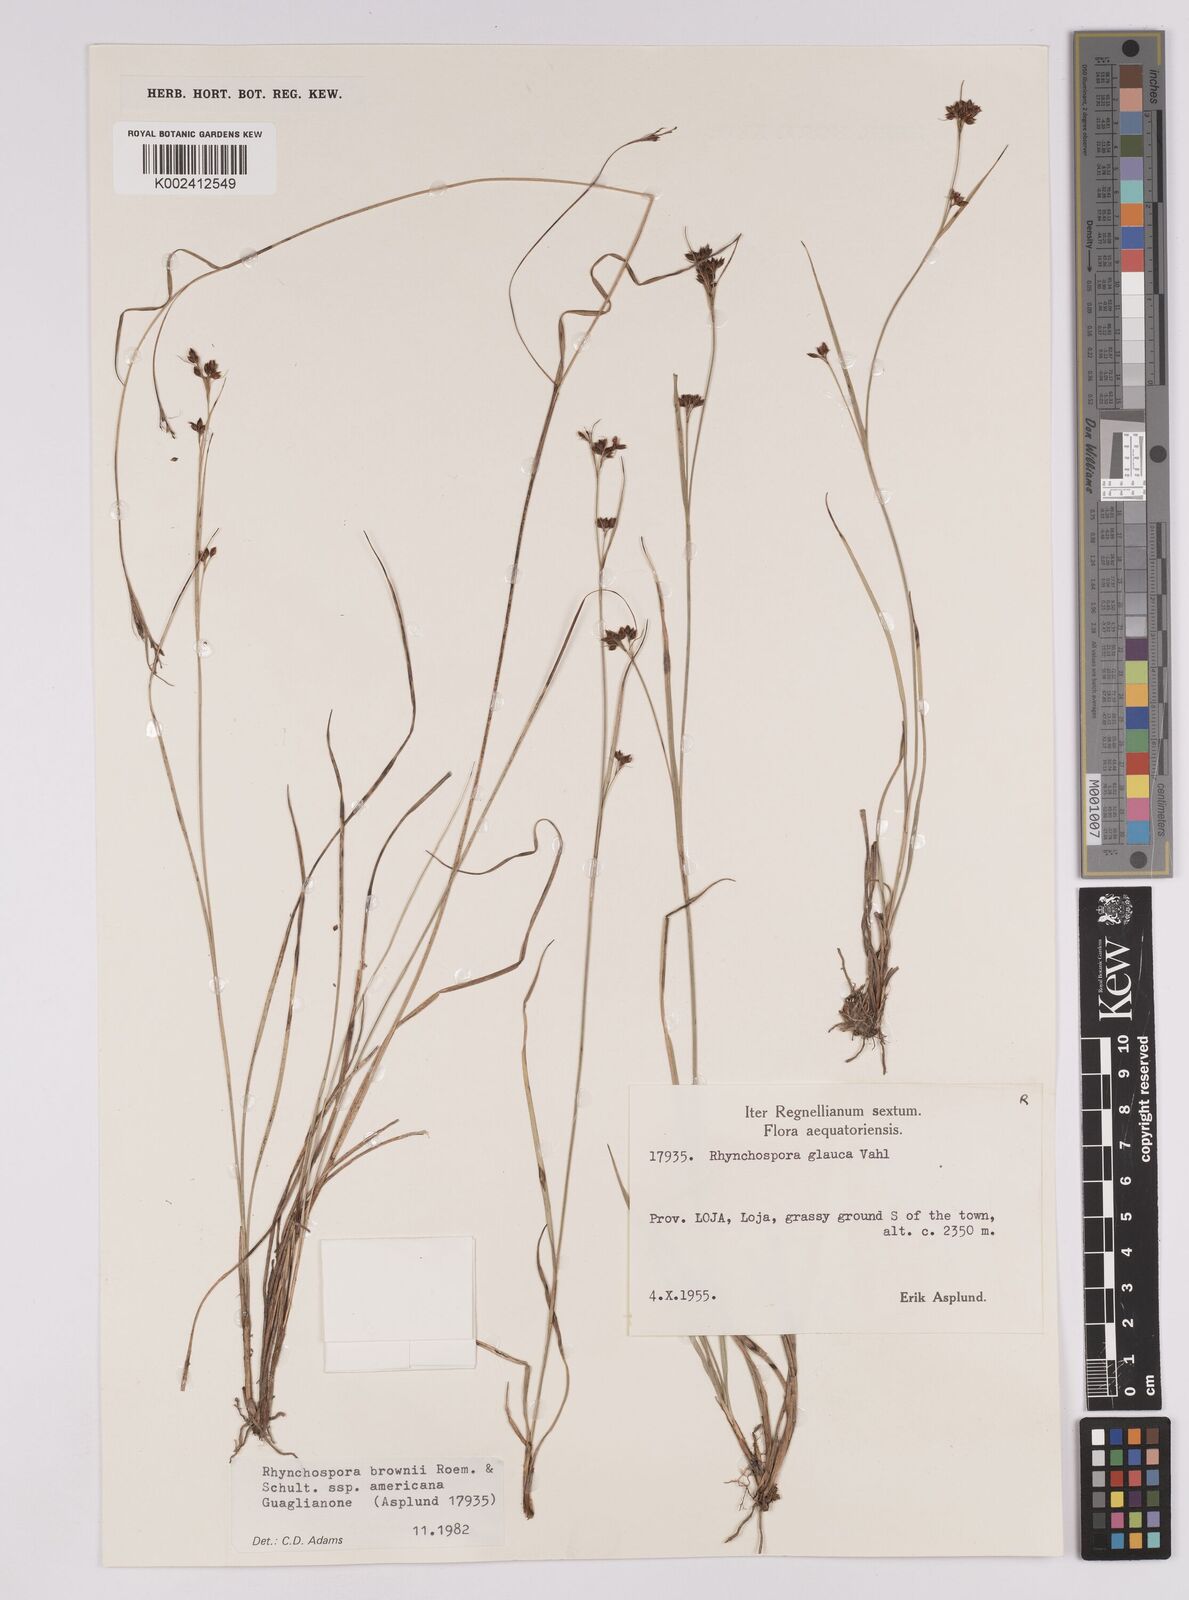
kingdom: Plantae
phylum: Tracheophyta
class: Liliopsida
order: Poales
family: Cyperaceae
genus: Rhynchospora
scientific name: Rhynchospora rugosa
